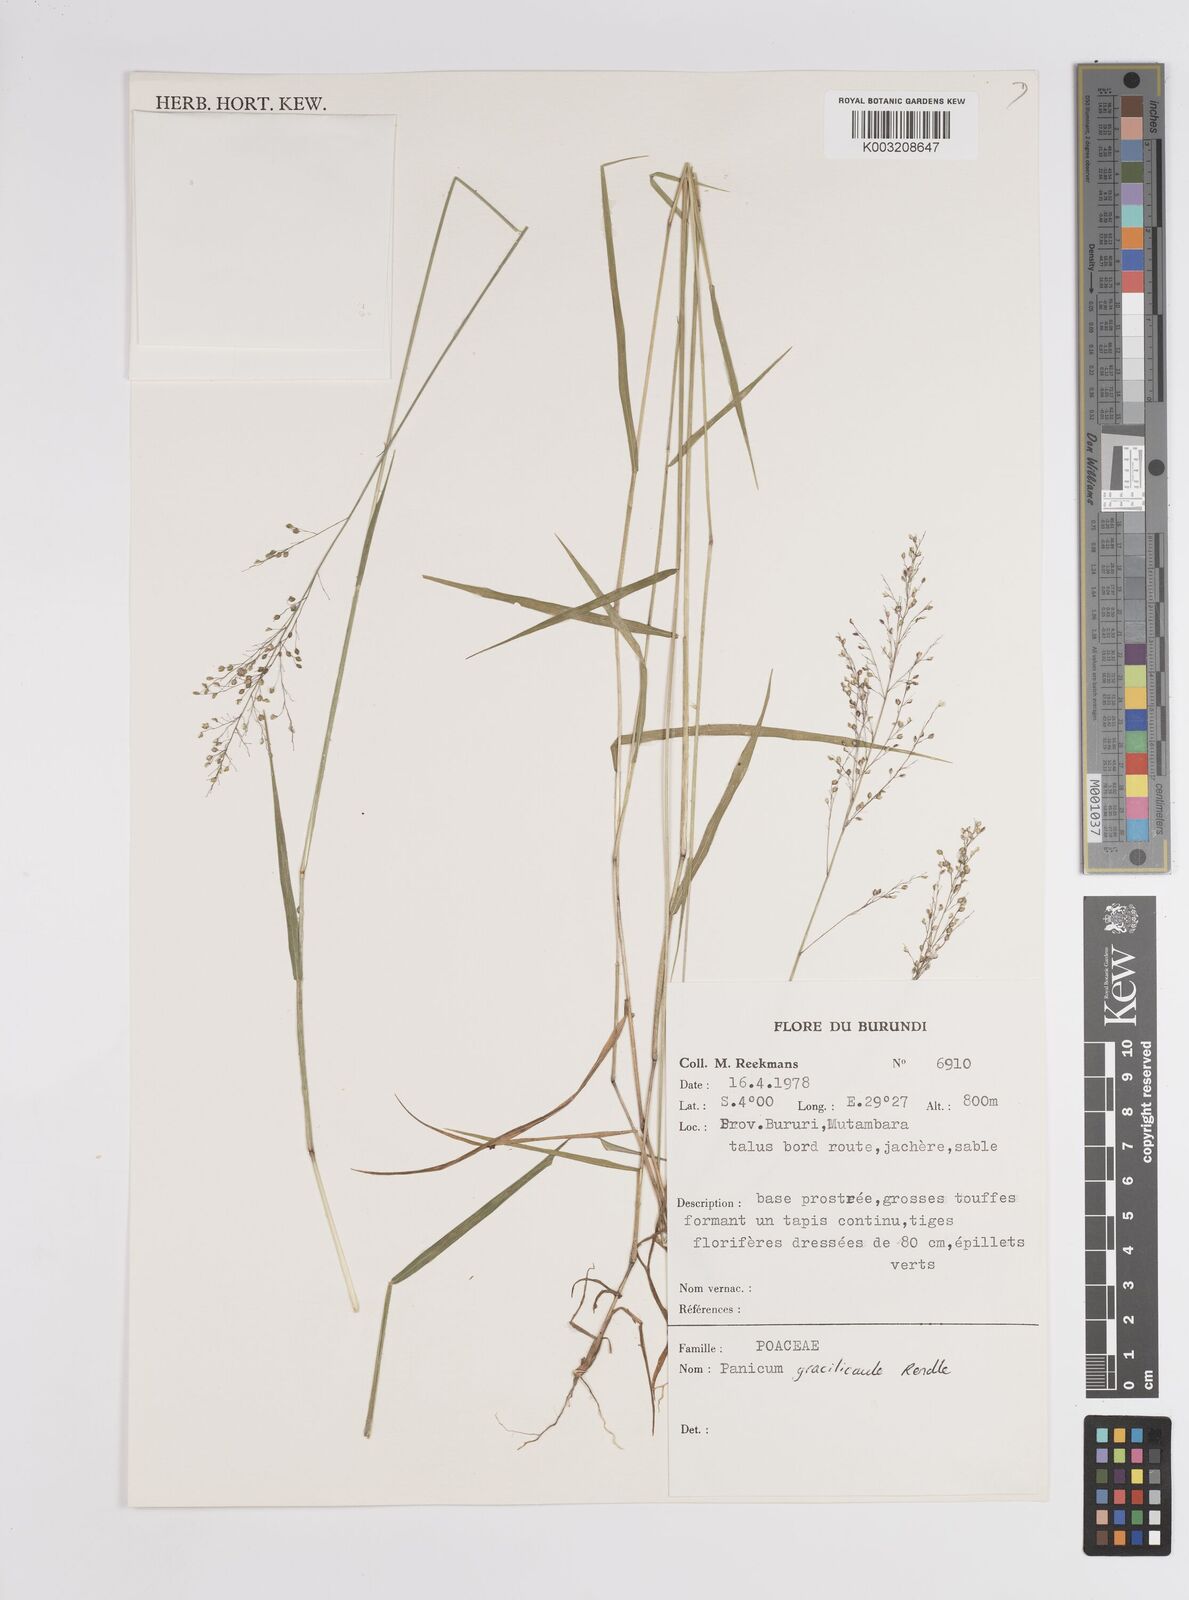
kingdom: Plantae
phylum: Tracheophyta
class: Liliopsida
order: Poales
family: Poaceae
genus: Panicum
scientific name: Panicum
